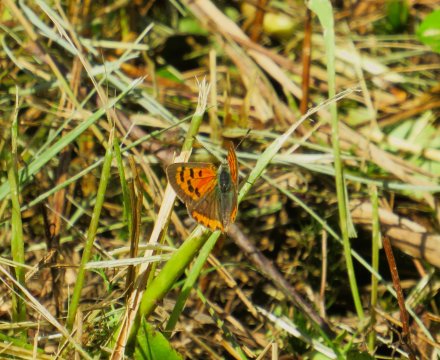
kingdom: Animalia
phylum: Arthropoda
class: Insecta
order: Lepidoptera
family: Lycaenidae
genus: Lycaena
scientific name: Lycaena phlaeas
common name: American Copper
